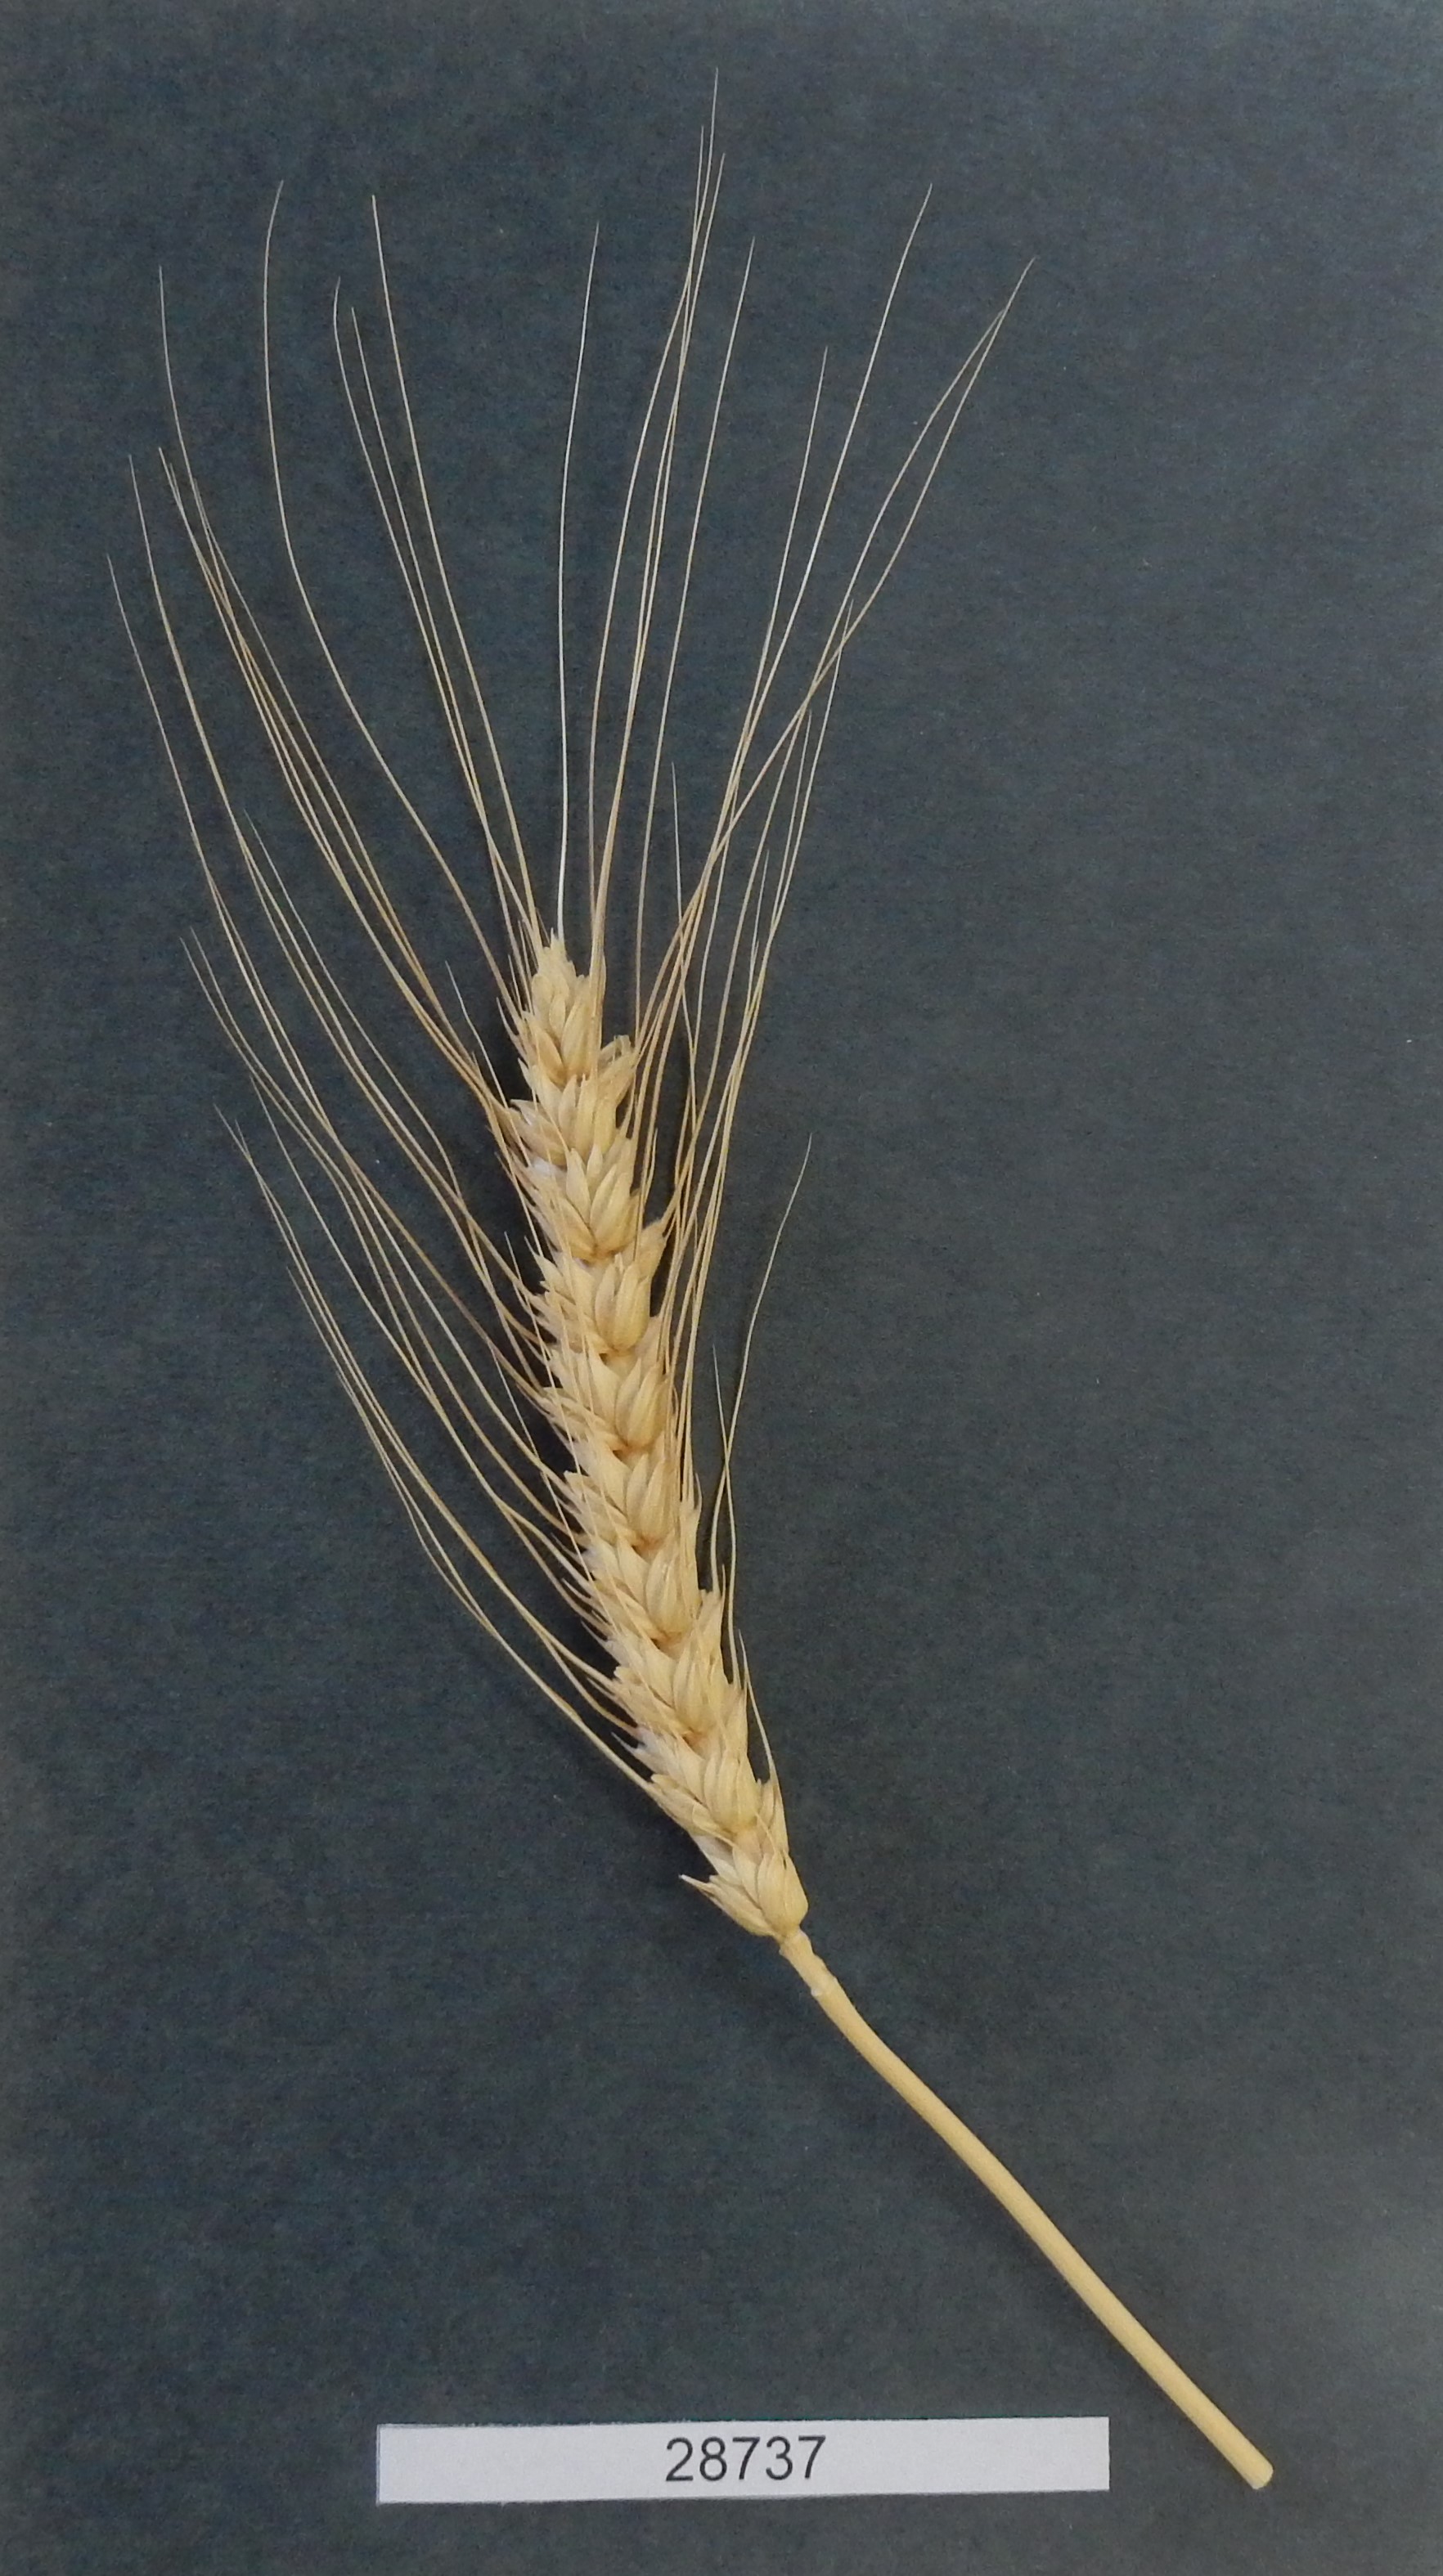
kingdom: Plantae
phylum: Tracheophyta
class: Liliopsida
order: Poales
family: Poaceae
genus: Triticum
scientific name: Triticum aestivum
